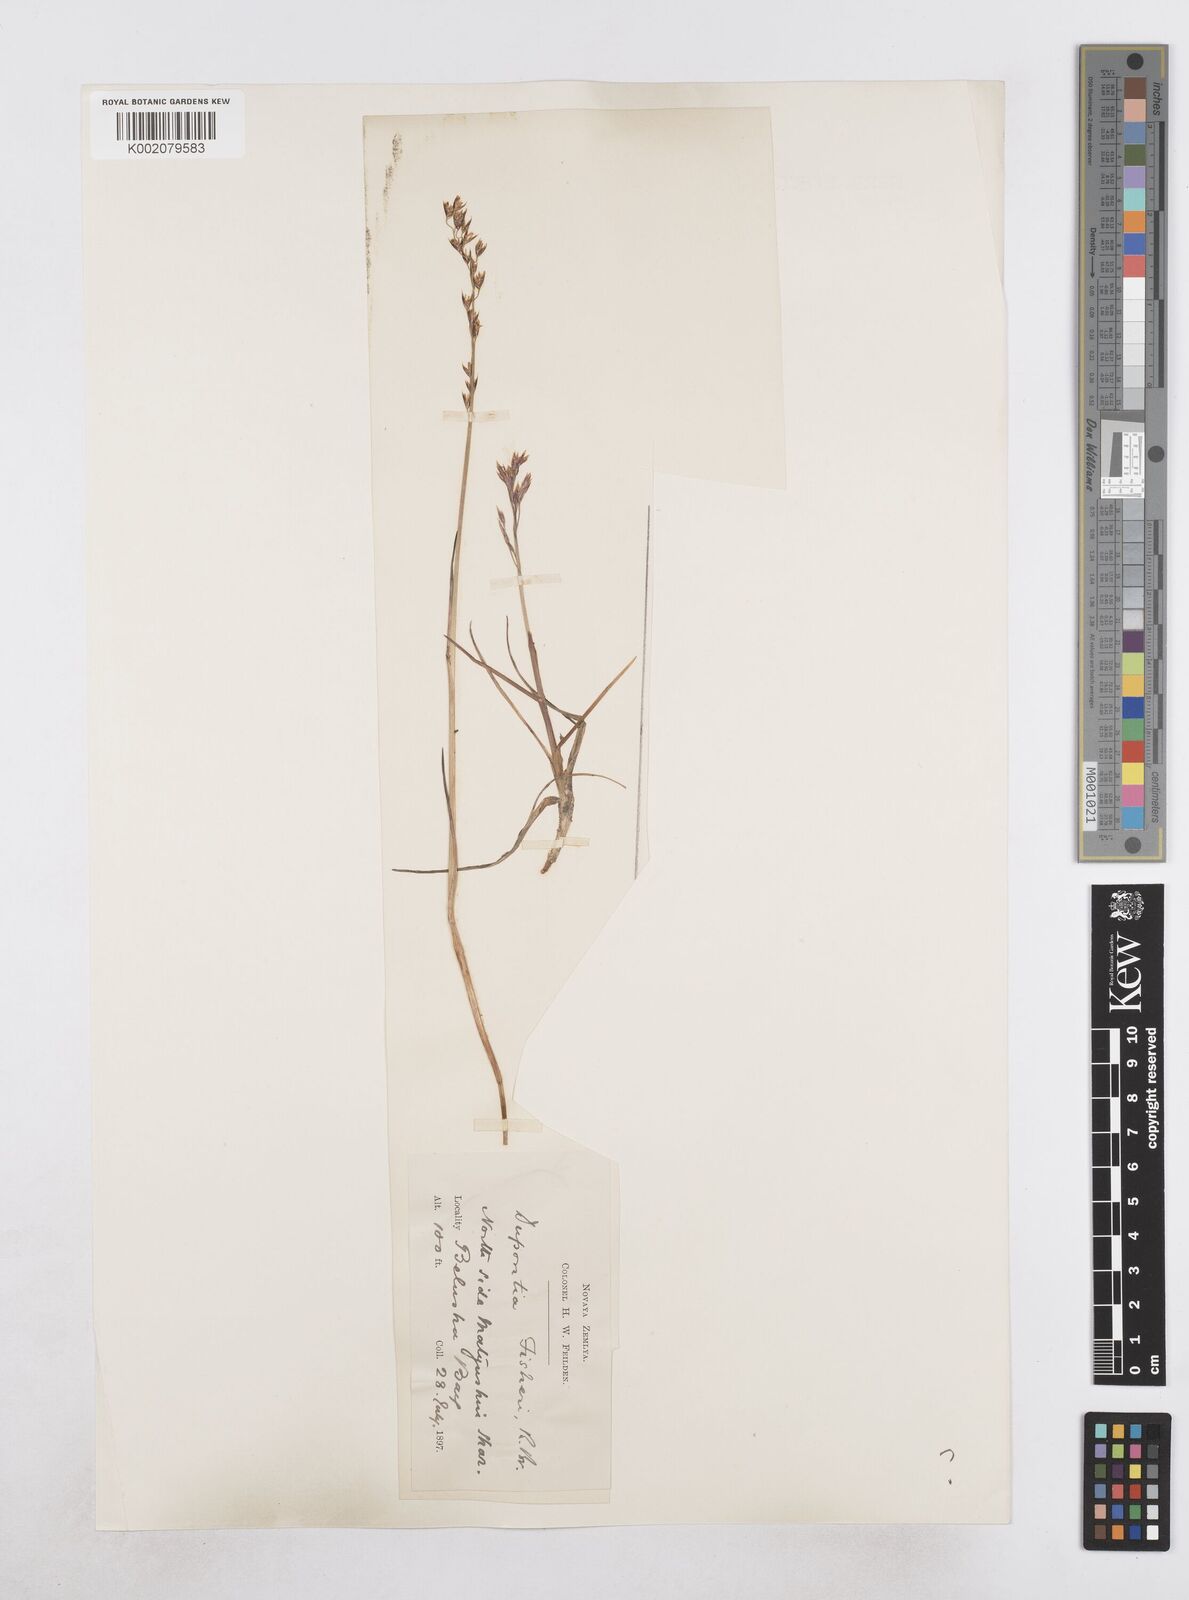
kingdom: Plantae
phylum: Tracheophyta
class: Liliopsida
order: Poales
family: Poaceae
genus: Dupontia
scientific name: Dupontia fisheri
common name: Tundra grass
